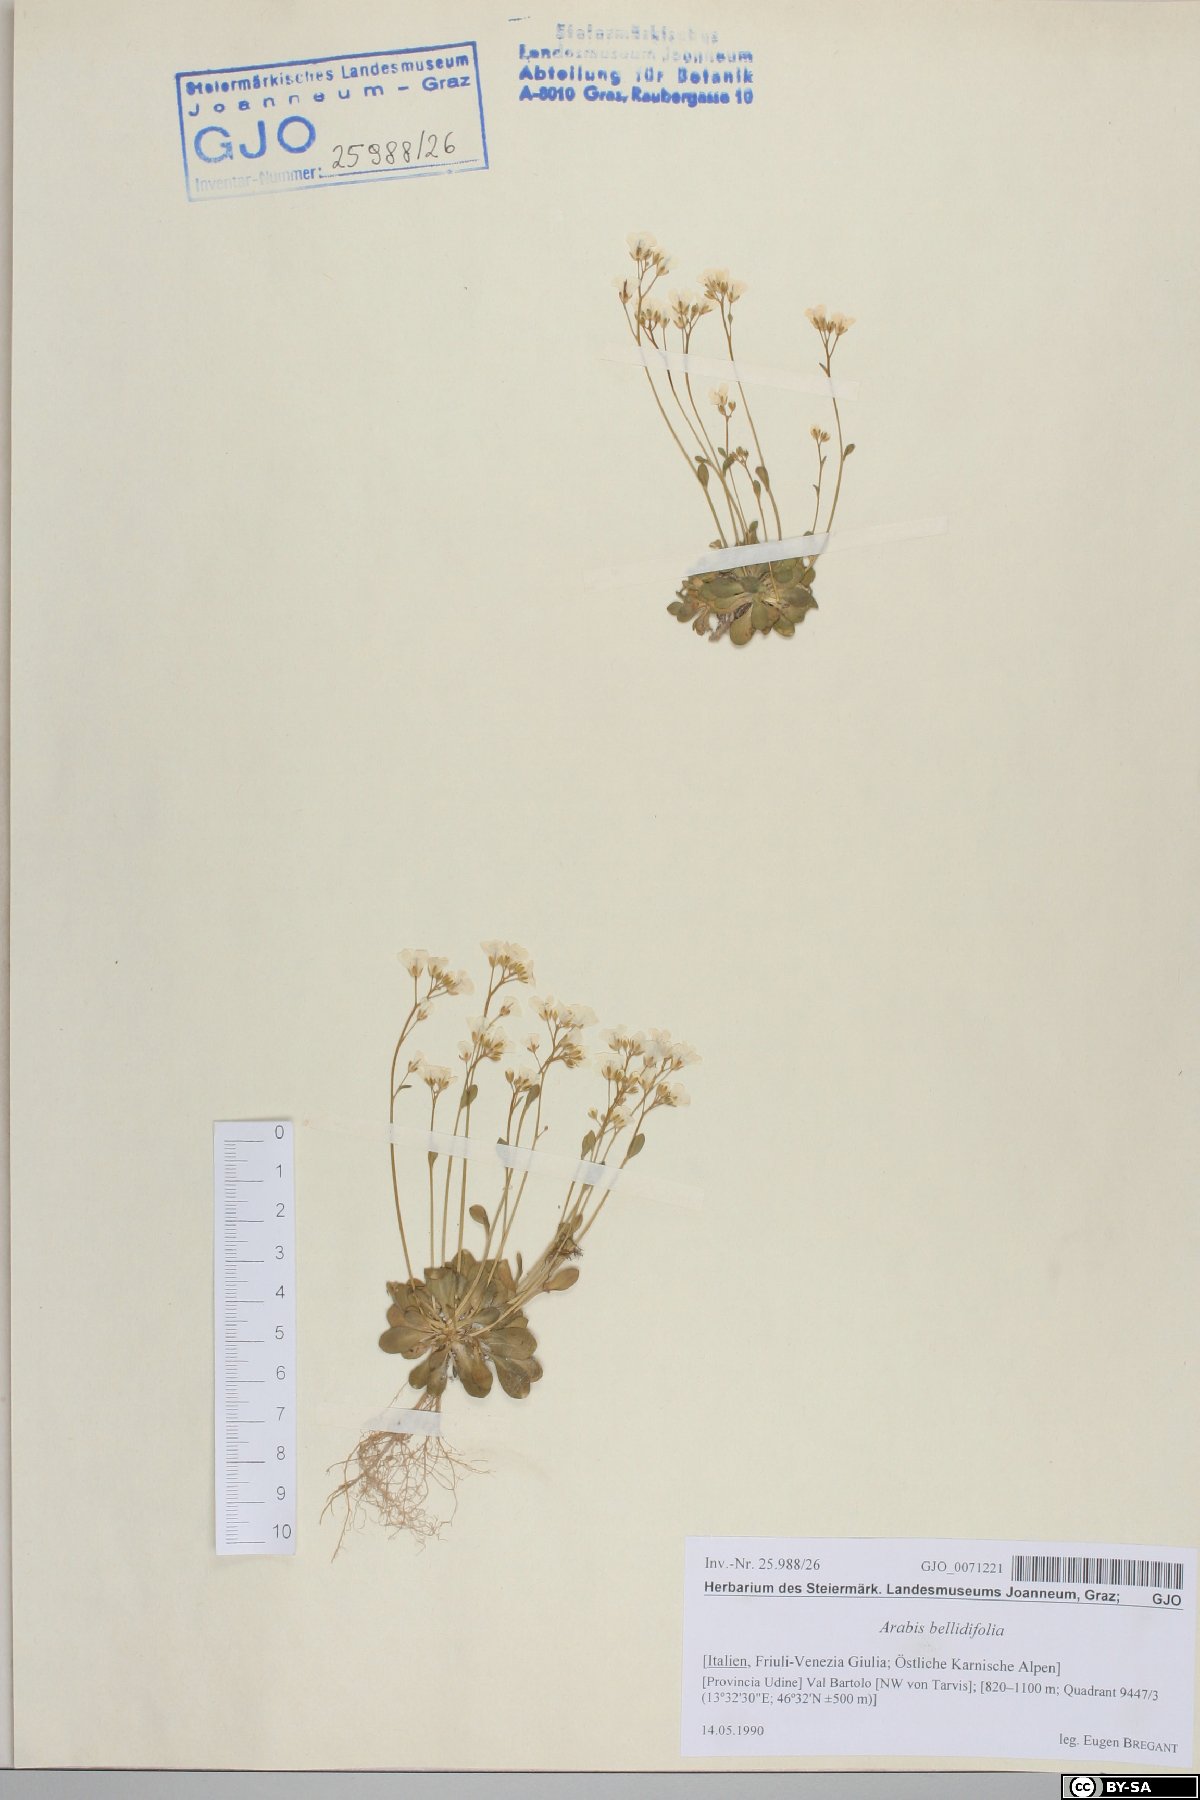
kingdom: Plantae
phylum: Tracheophyta
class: Magnoliopsida
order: Brassicales
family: Brassicaceae
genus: Arabis
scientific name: Arabis soyeri
